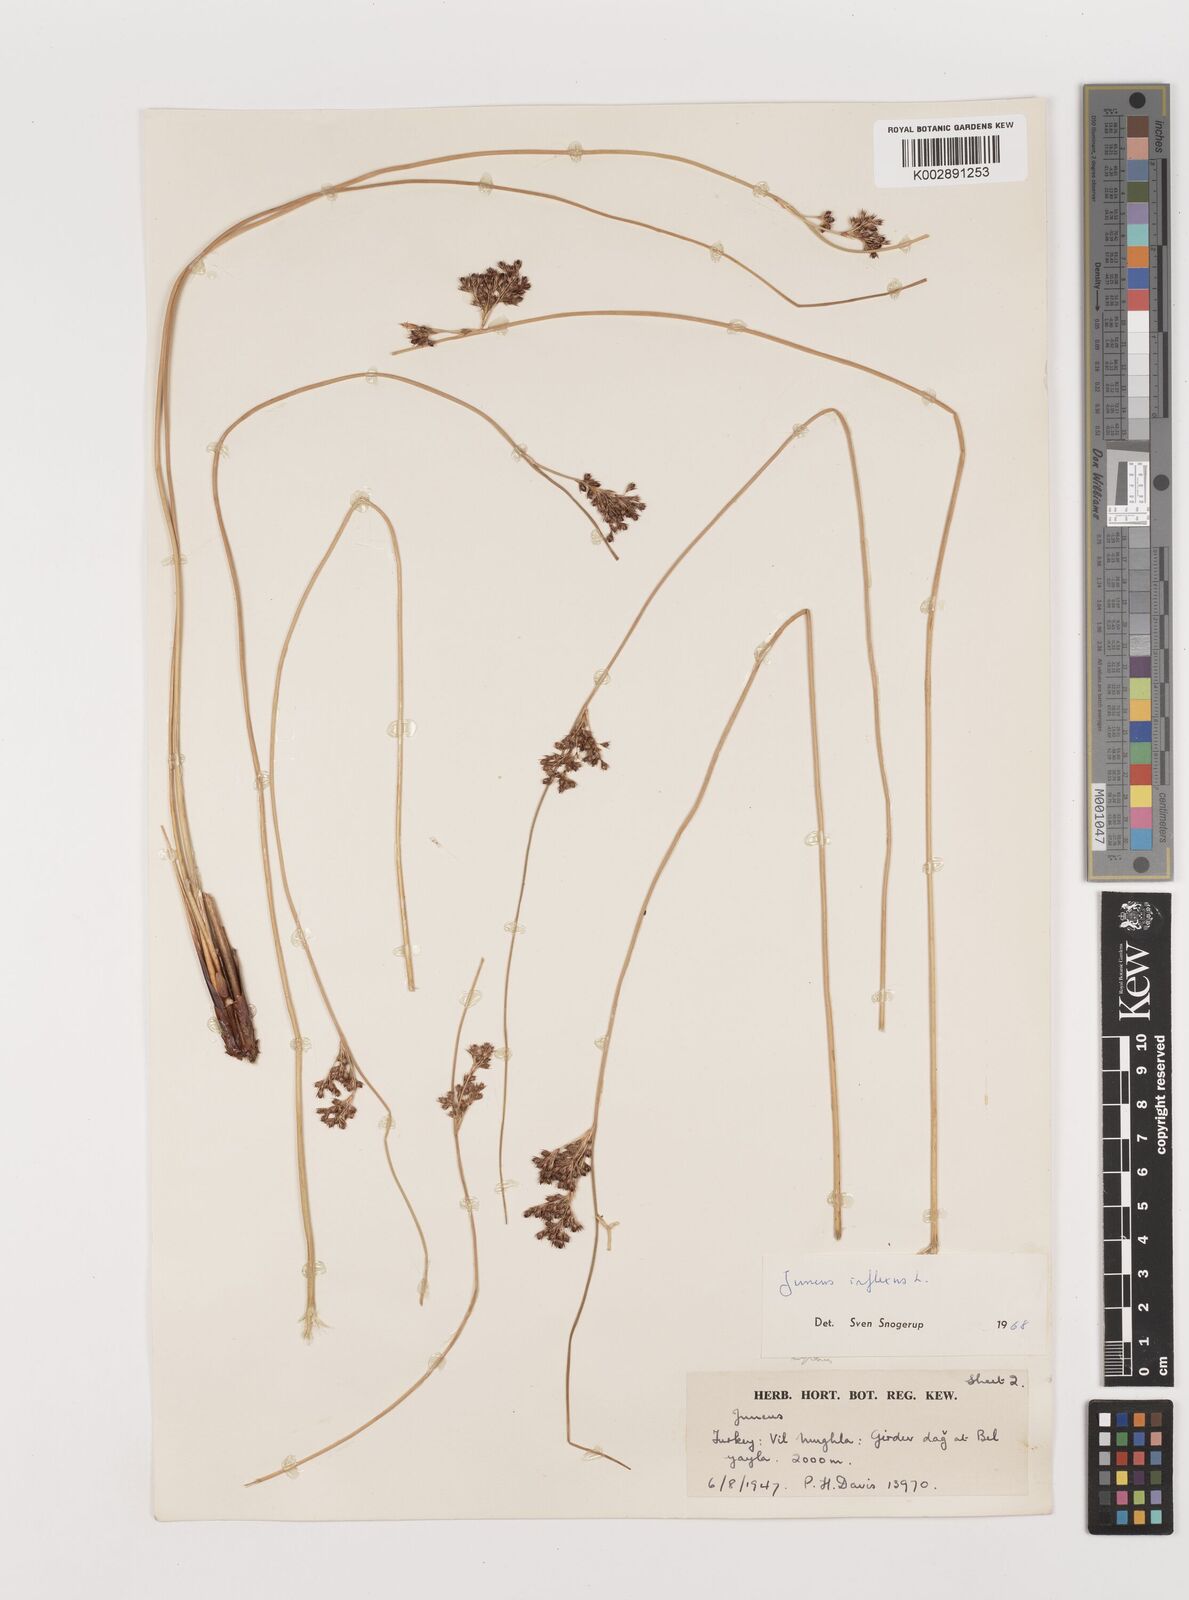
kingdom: Plantae
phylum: Tracheophyta
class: Liliopsida
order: Poales
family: Juncaceae
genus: Juncus
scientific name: Juncus inflexus
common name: Hard rush
